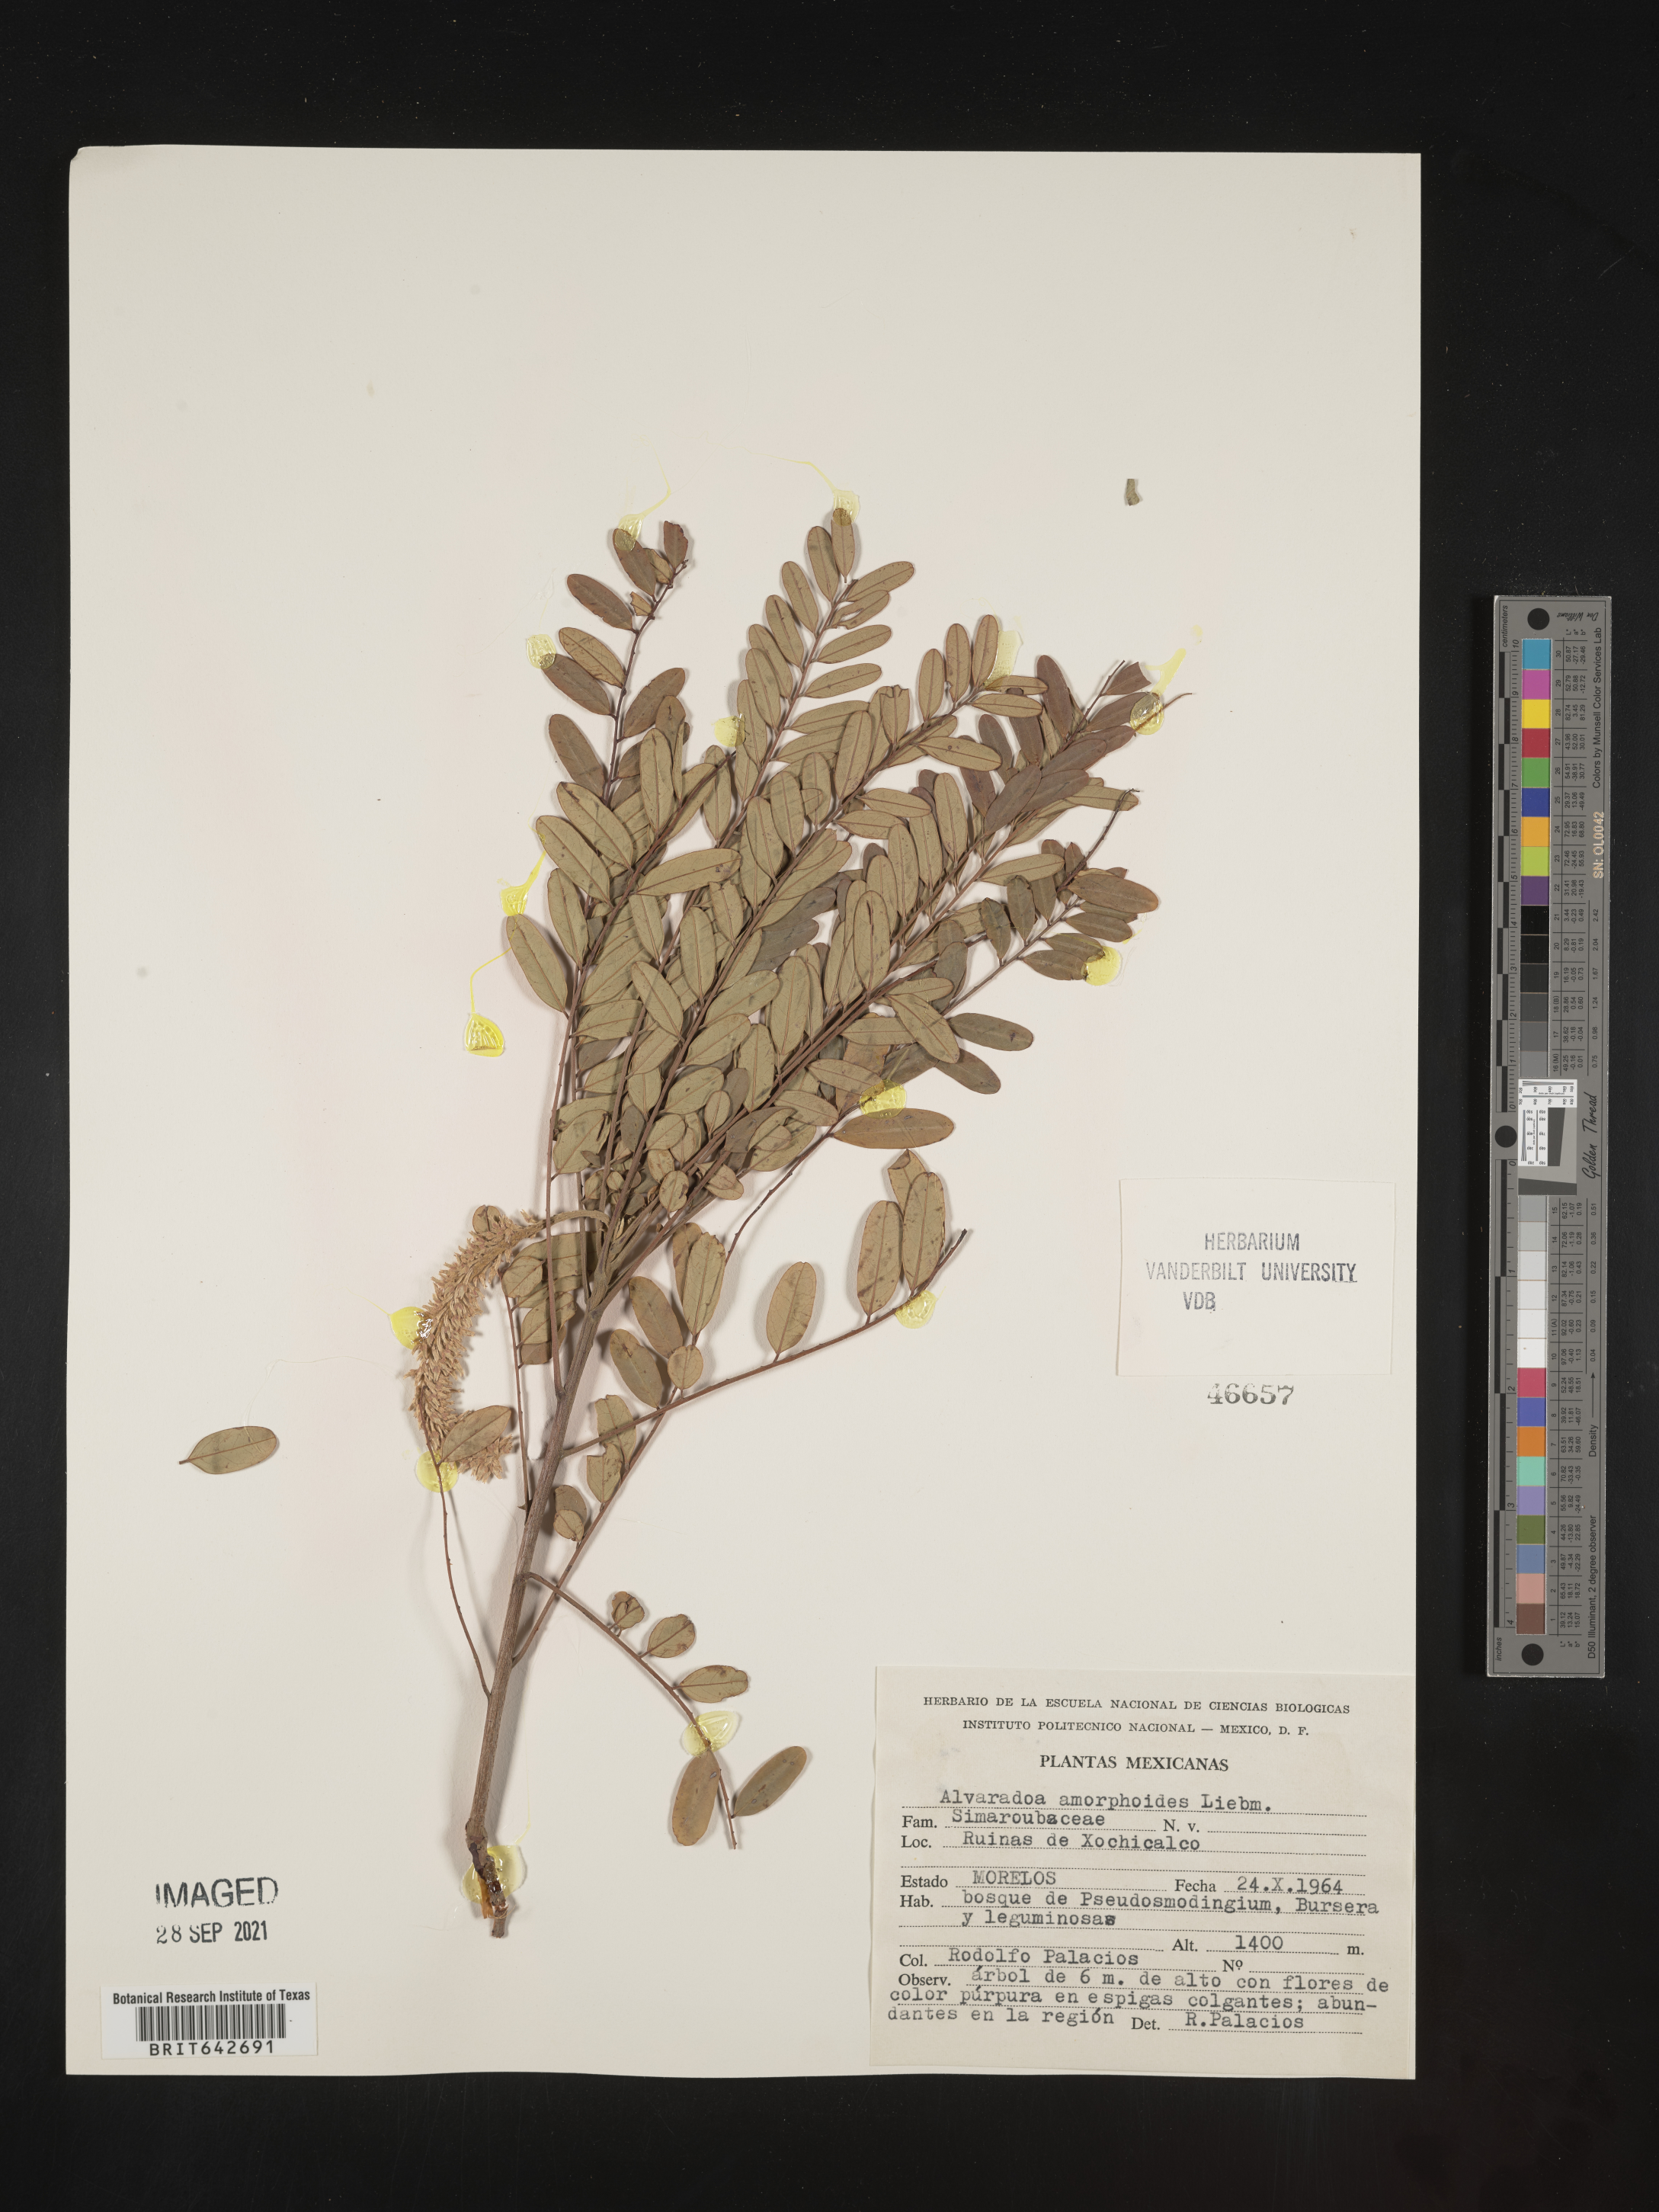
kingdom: Plantae
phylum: Tracheophyta
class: Magnoliopsida
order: Picramniales
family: Picramniaceae
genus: Alvaradoa
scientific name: Alvaradoa
